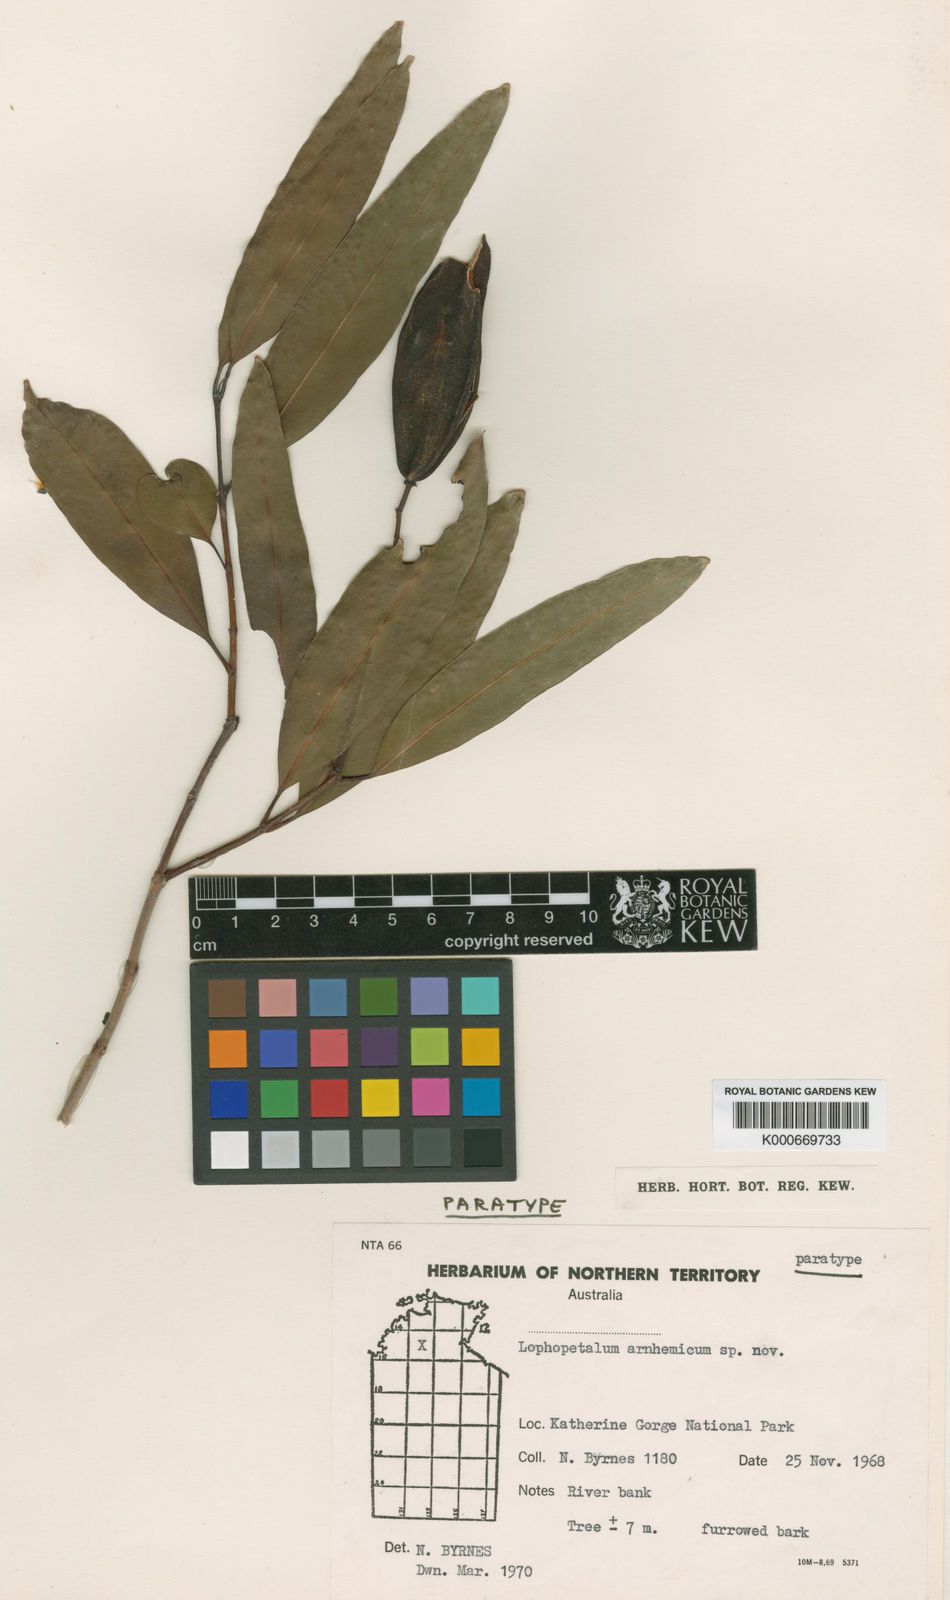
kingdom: Plantae
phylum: Tracheophyta
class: Magnoliopsida
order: Celastrales
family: Celastraceae
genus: Lophopetalum
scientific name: Lophopetalum arnhemicum
